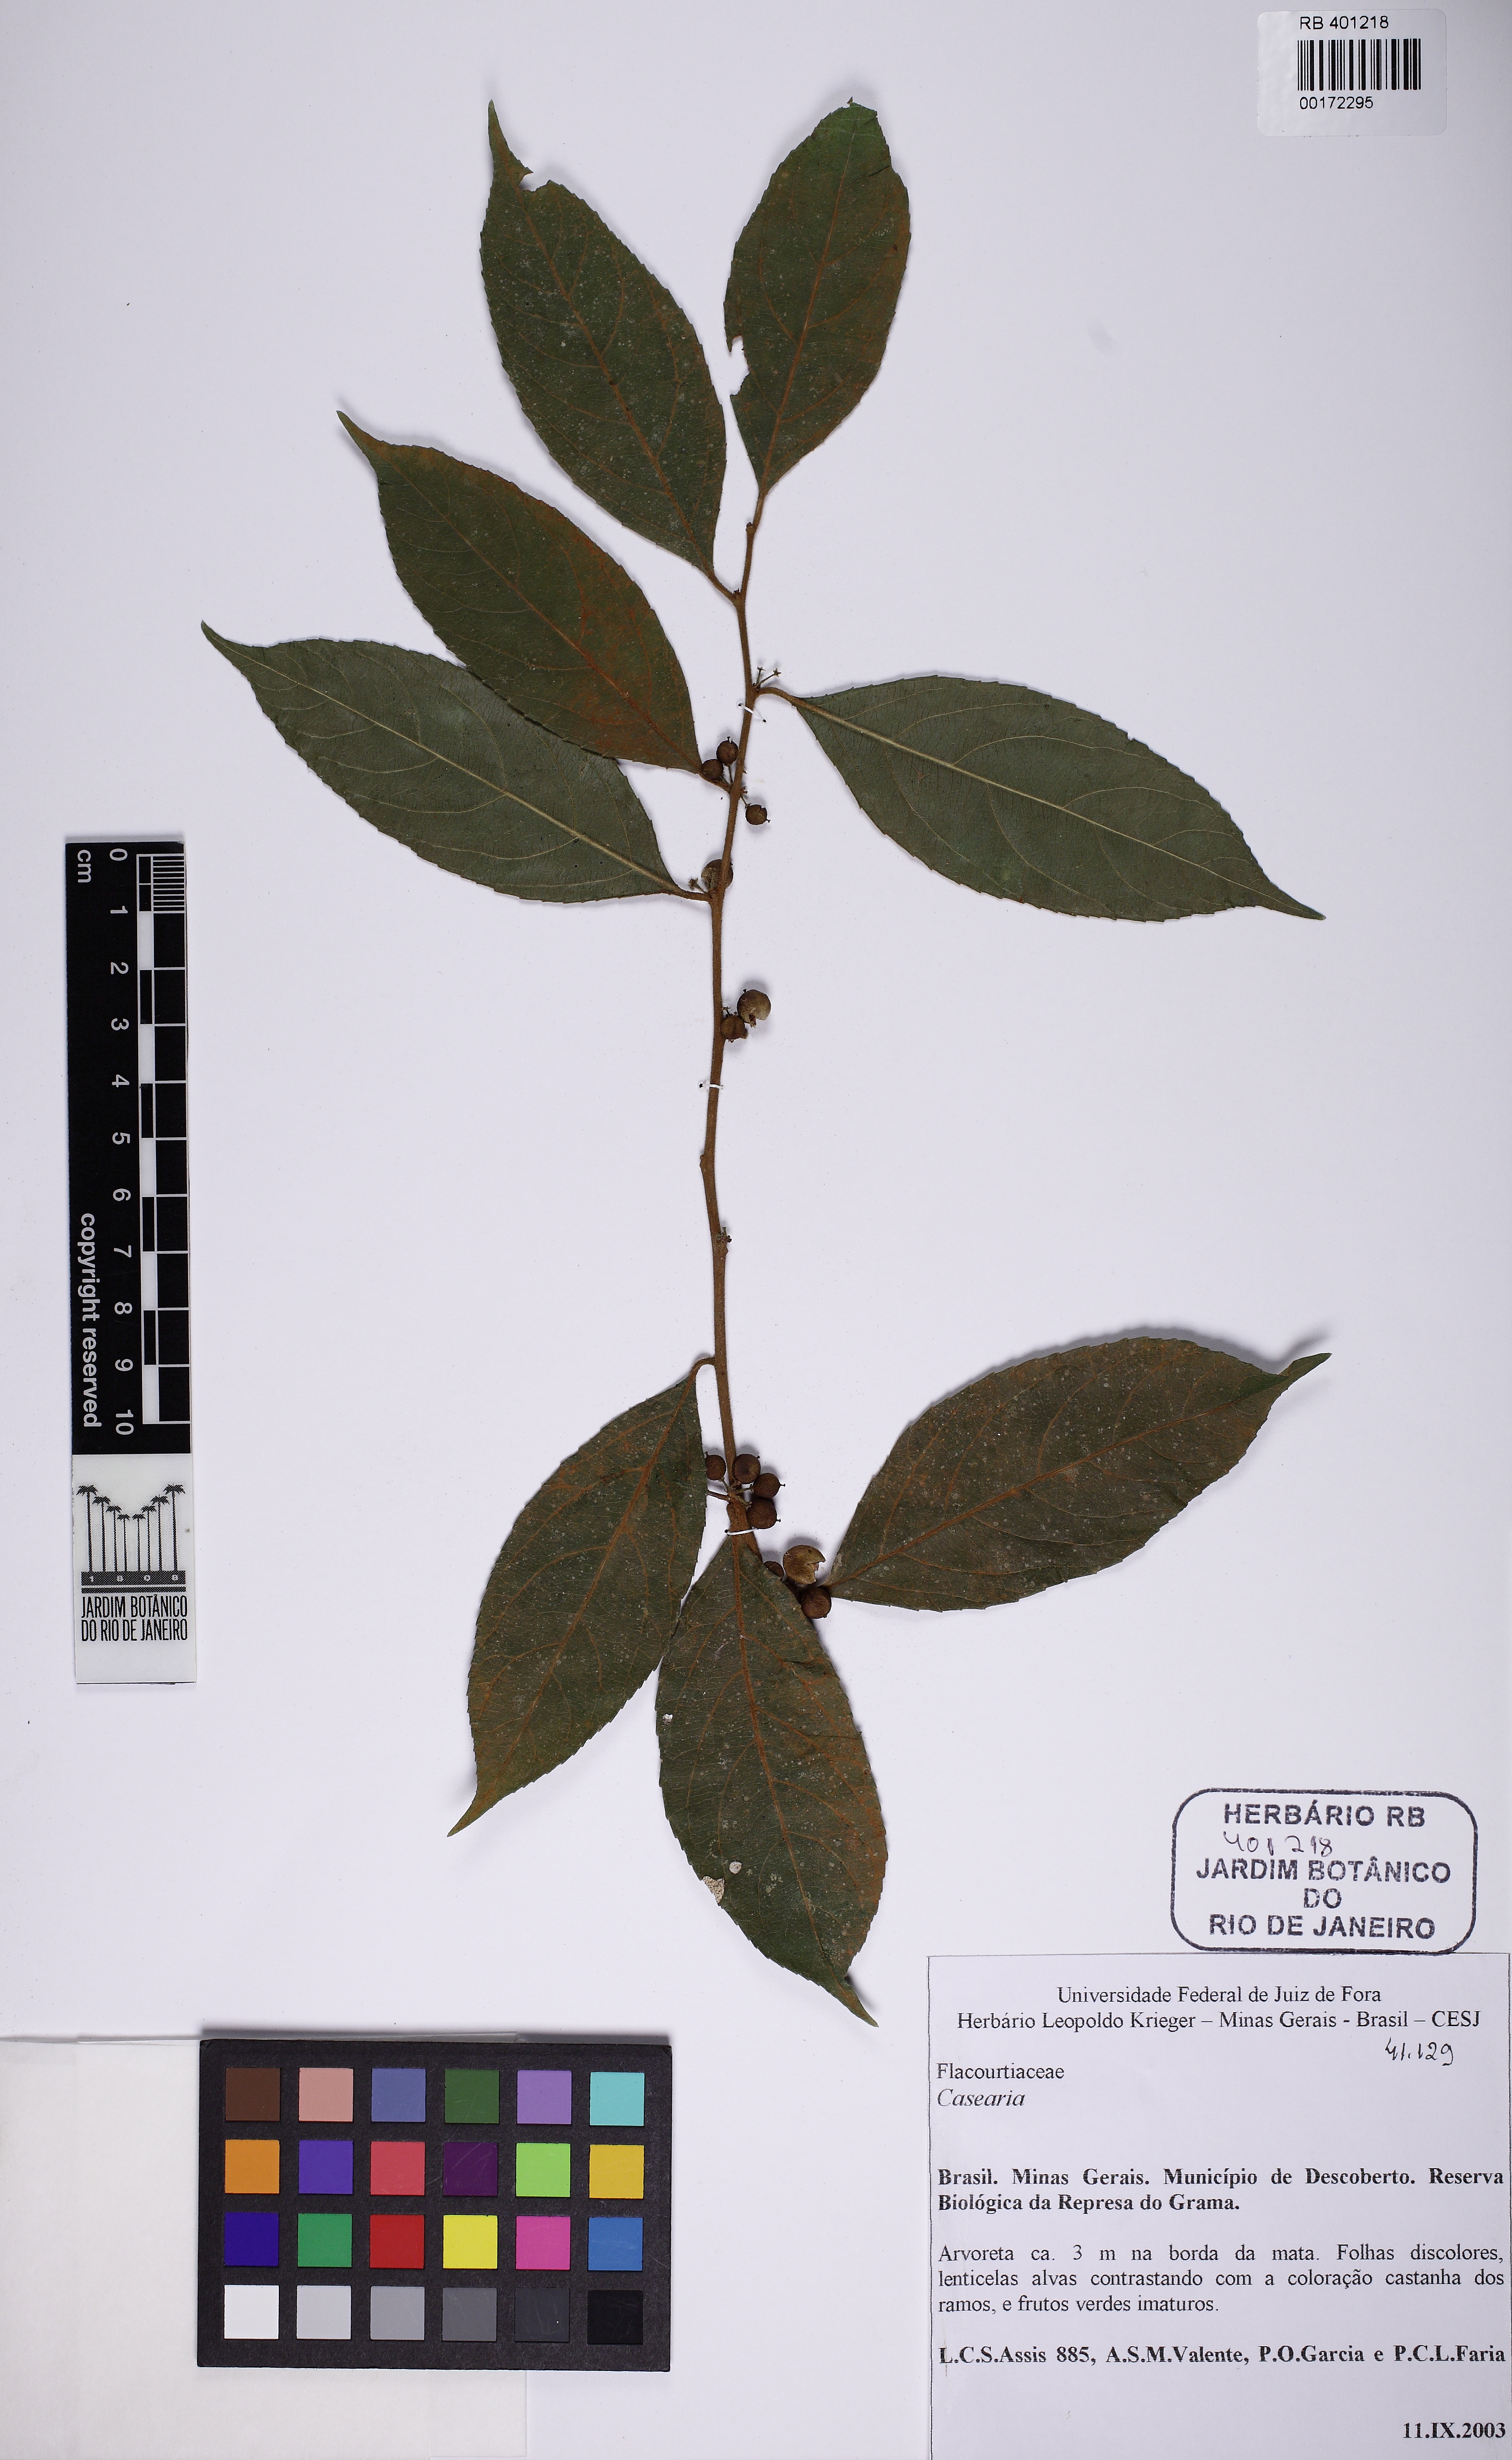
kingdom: Plantae
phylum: Tracheophyta
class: Magnoliopsida
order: Malpighiales
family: Salicaceae
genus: Xylosma
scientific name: Xylosma ciliatifolia
